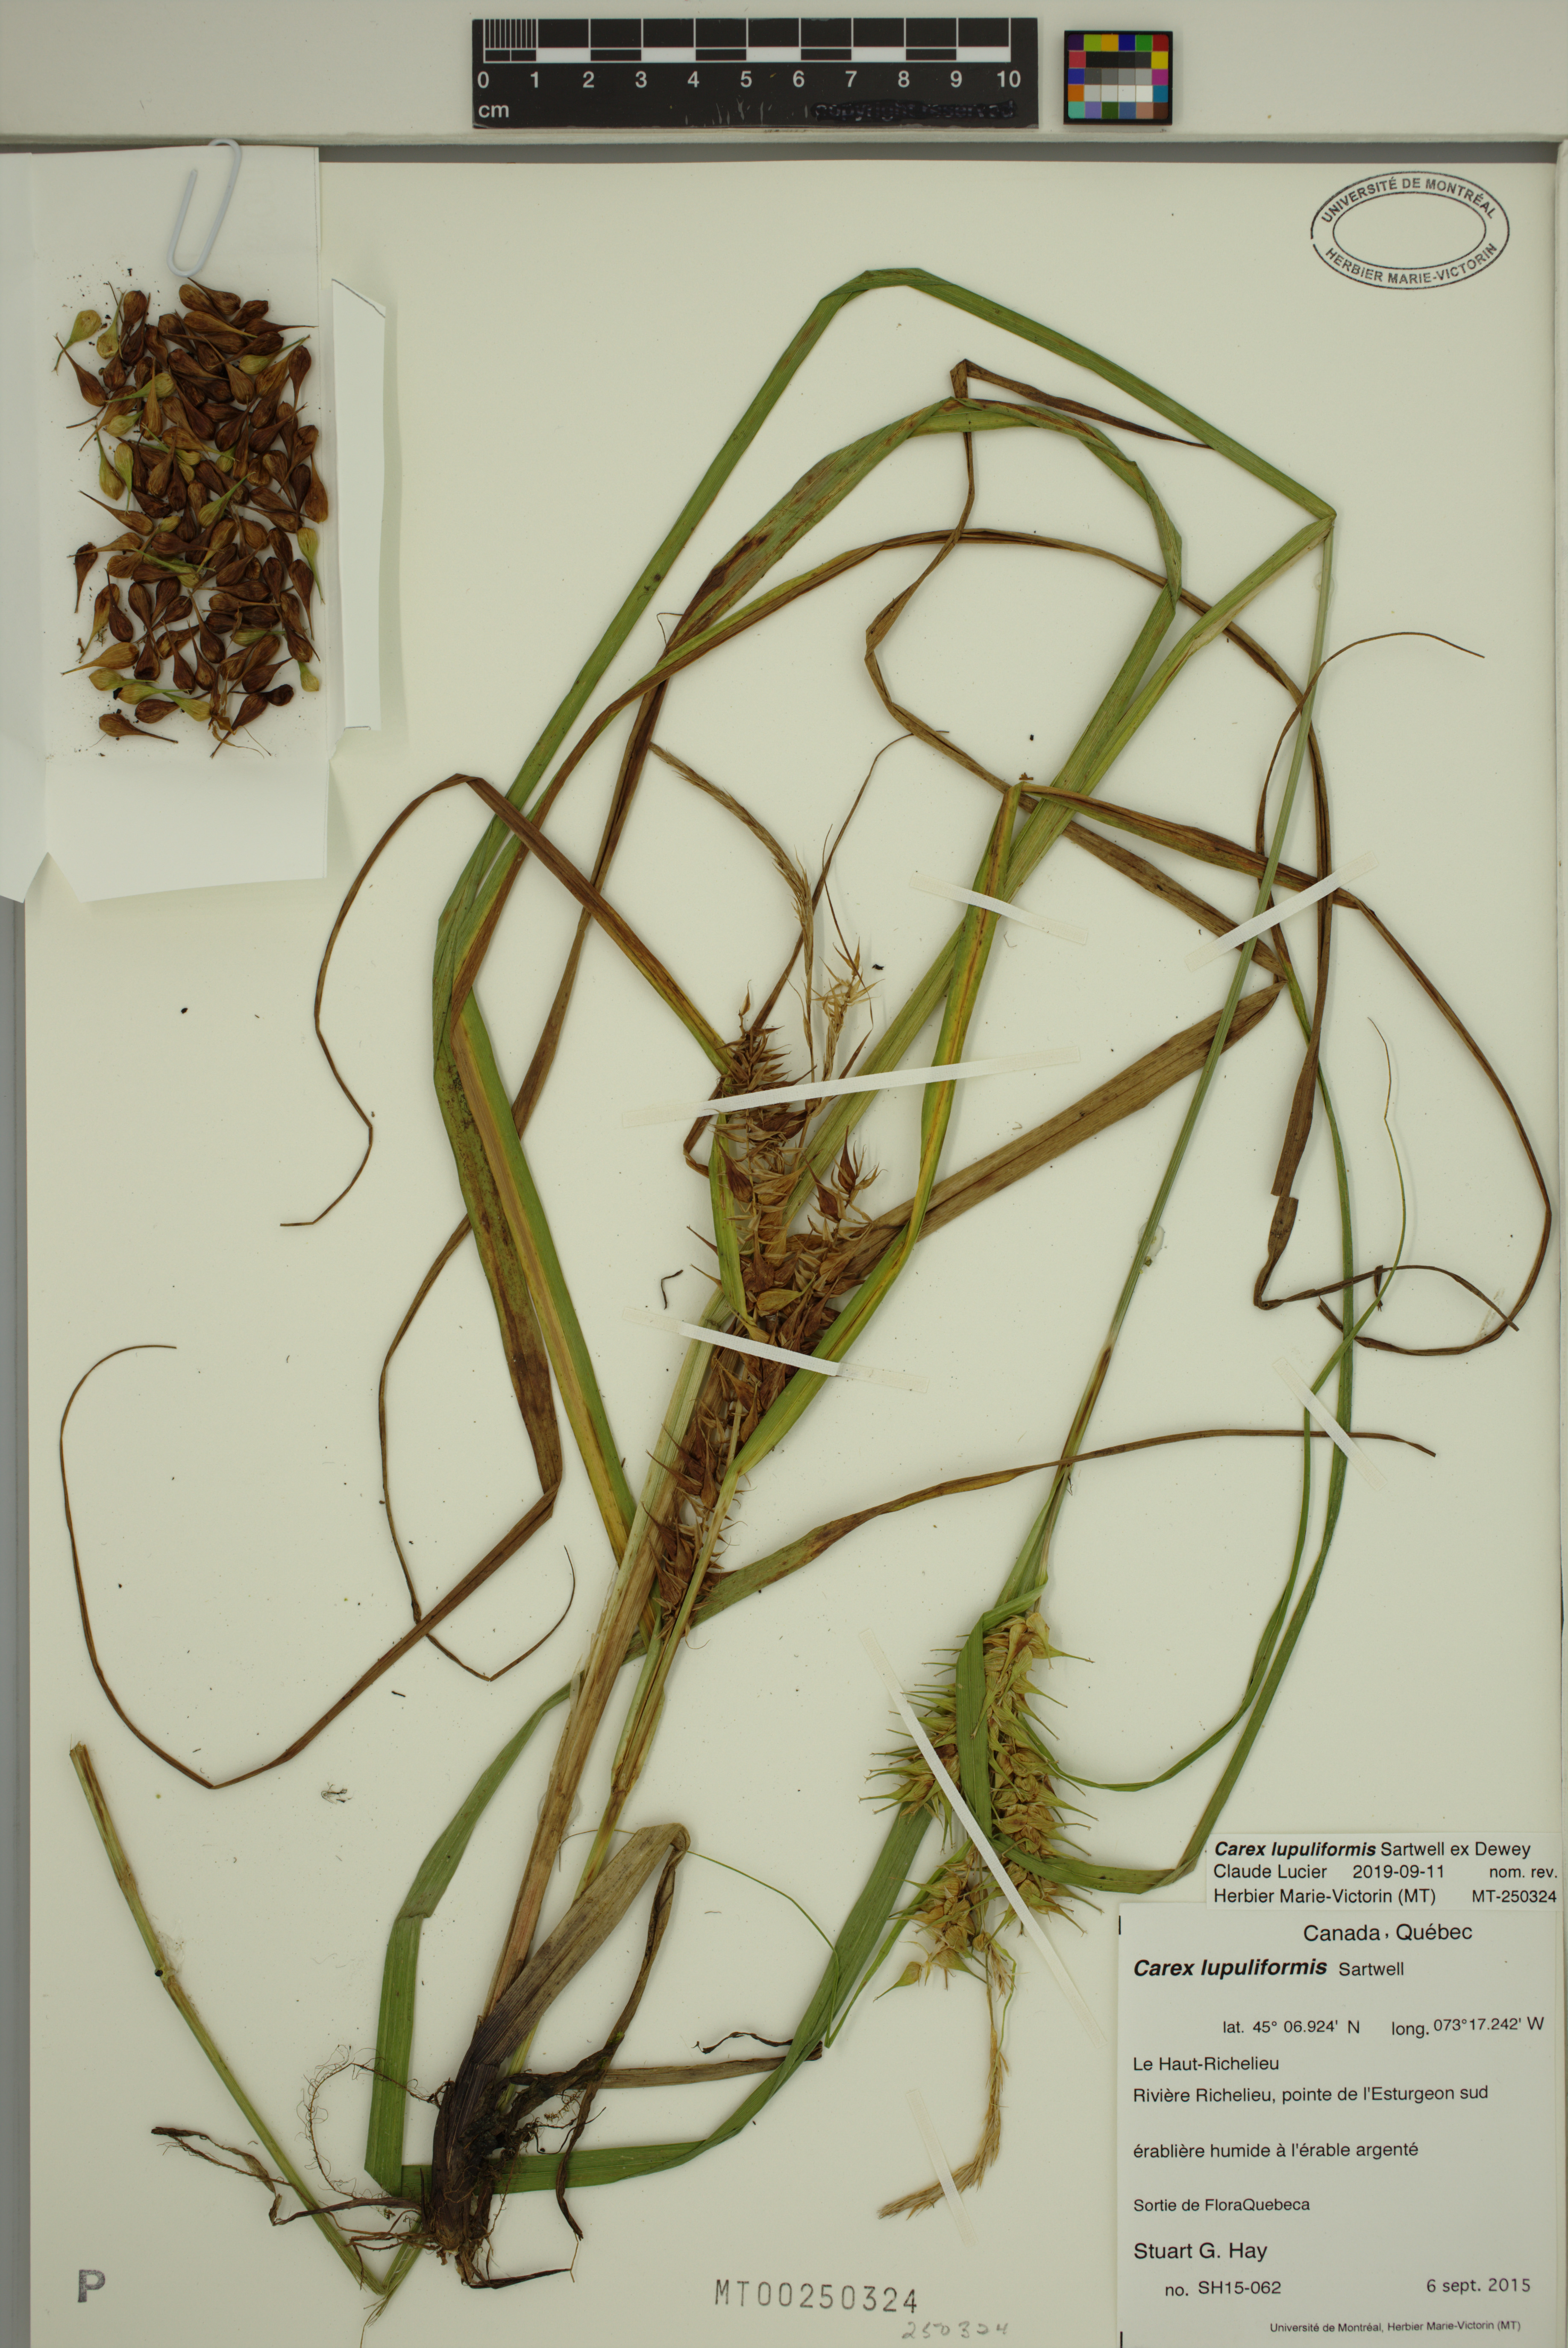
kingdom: Plantae
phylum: Tracheophyta
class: Liliopsida
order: Poales
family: Cyperaceae
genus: Carex
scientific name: Carex lupuliformis
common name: False hop sedge
